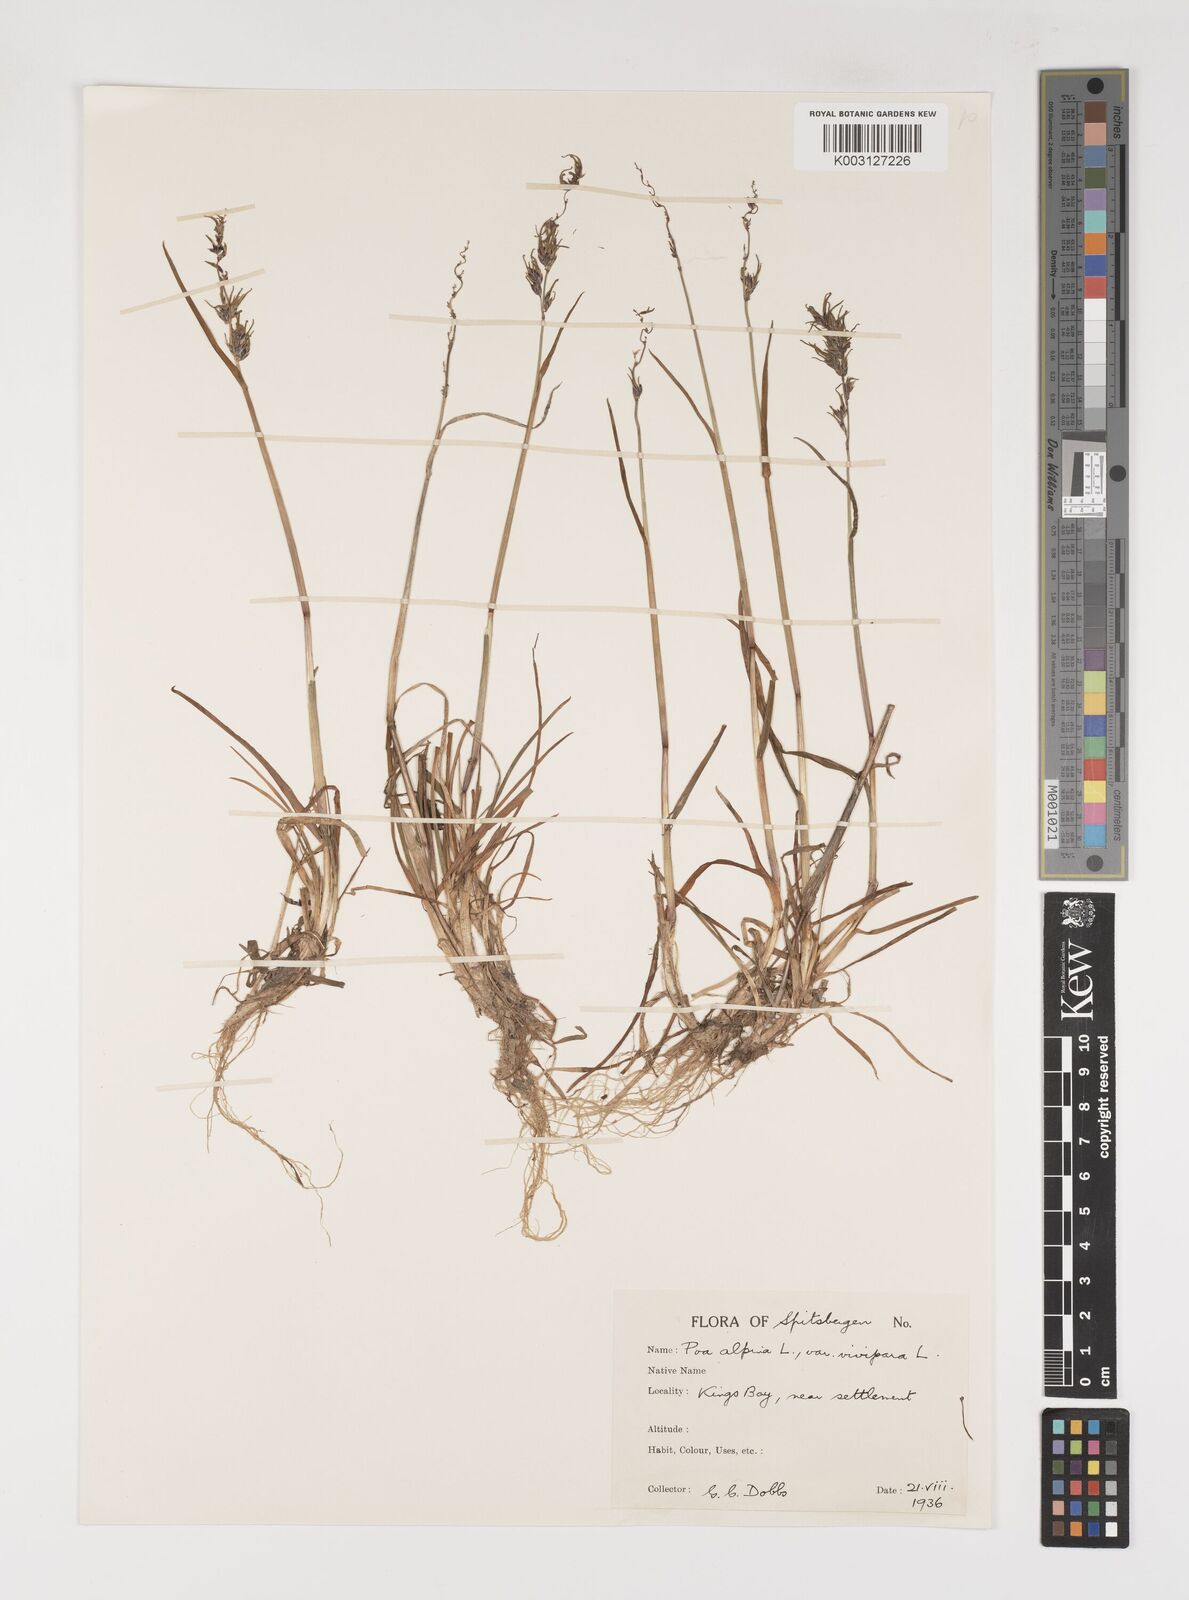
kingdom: Plantae
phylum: Tracheophyta
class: Liliopsida
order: Poales
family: Poaceae
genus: Poa
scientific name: Poa alpina
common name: Alpine bluegrass
